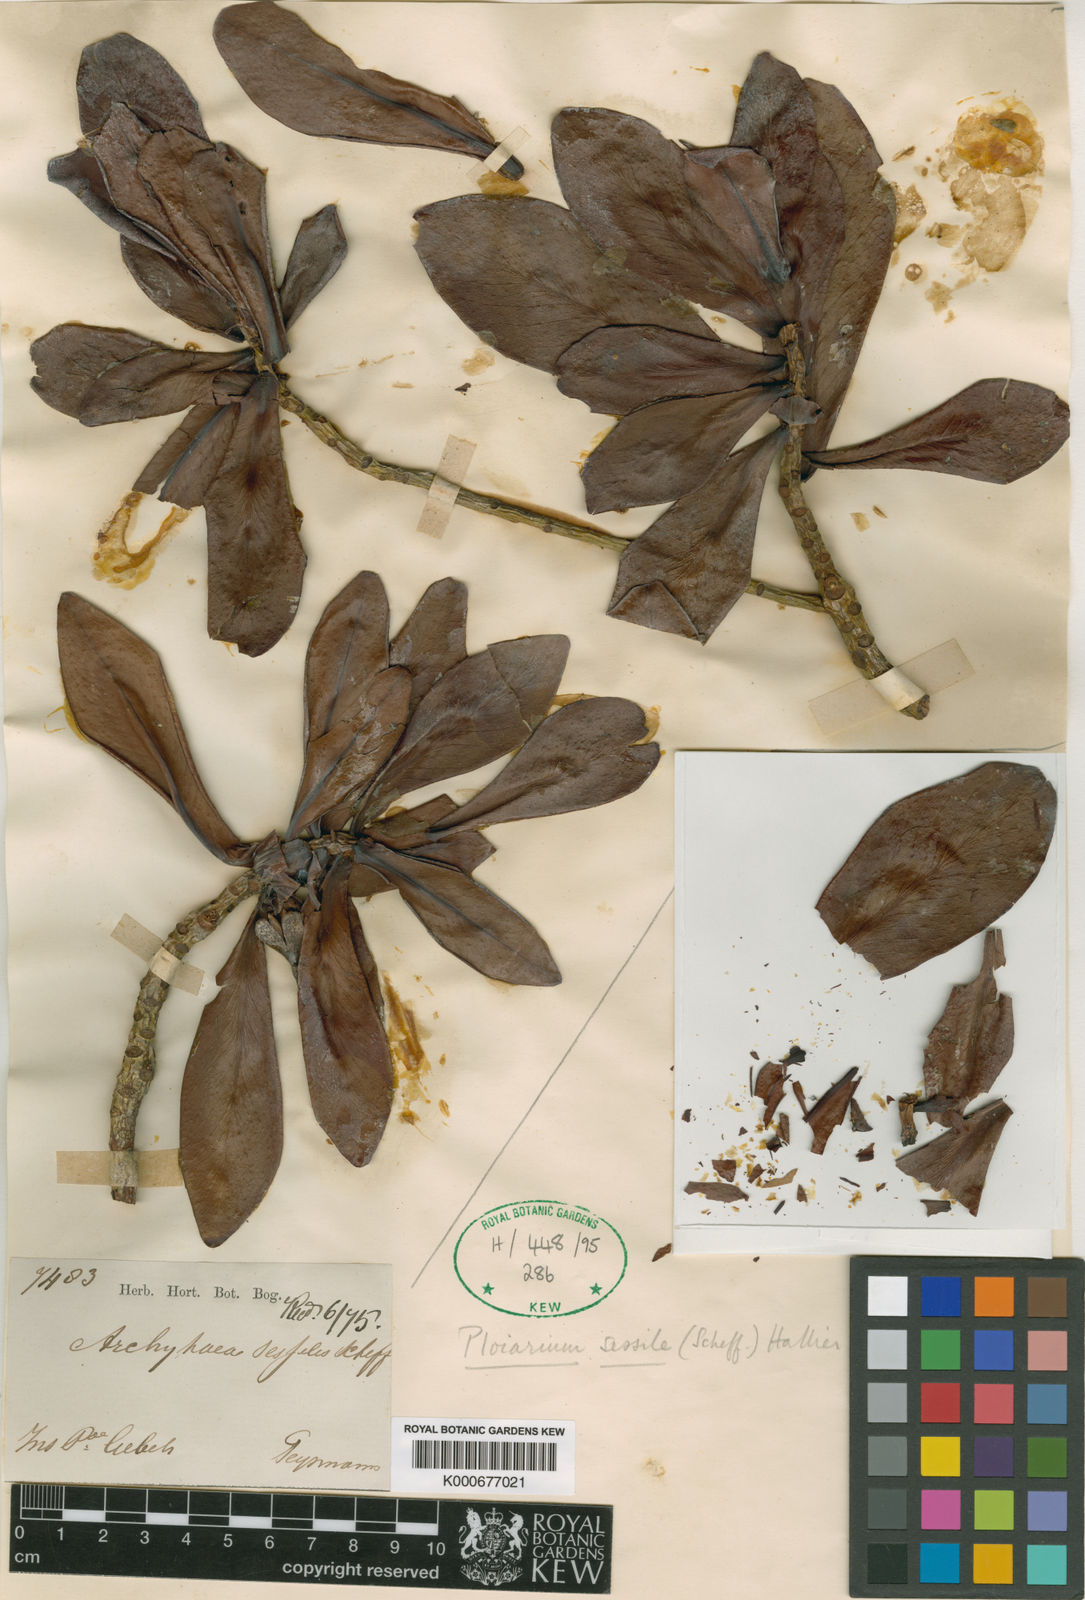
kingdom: Plantae
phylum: Tracheophyta
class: Magnoliopsida
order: Malpighiales
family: Bonnetiaceae
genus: Ploiarium
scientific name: Ploiarium alternifolium
